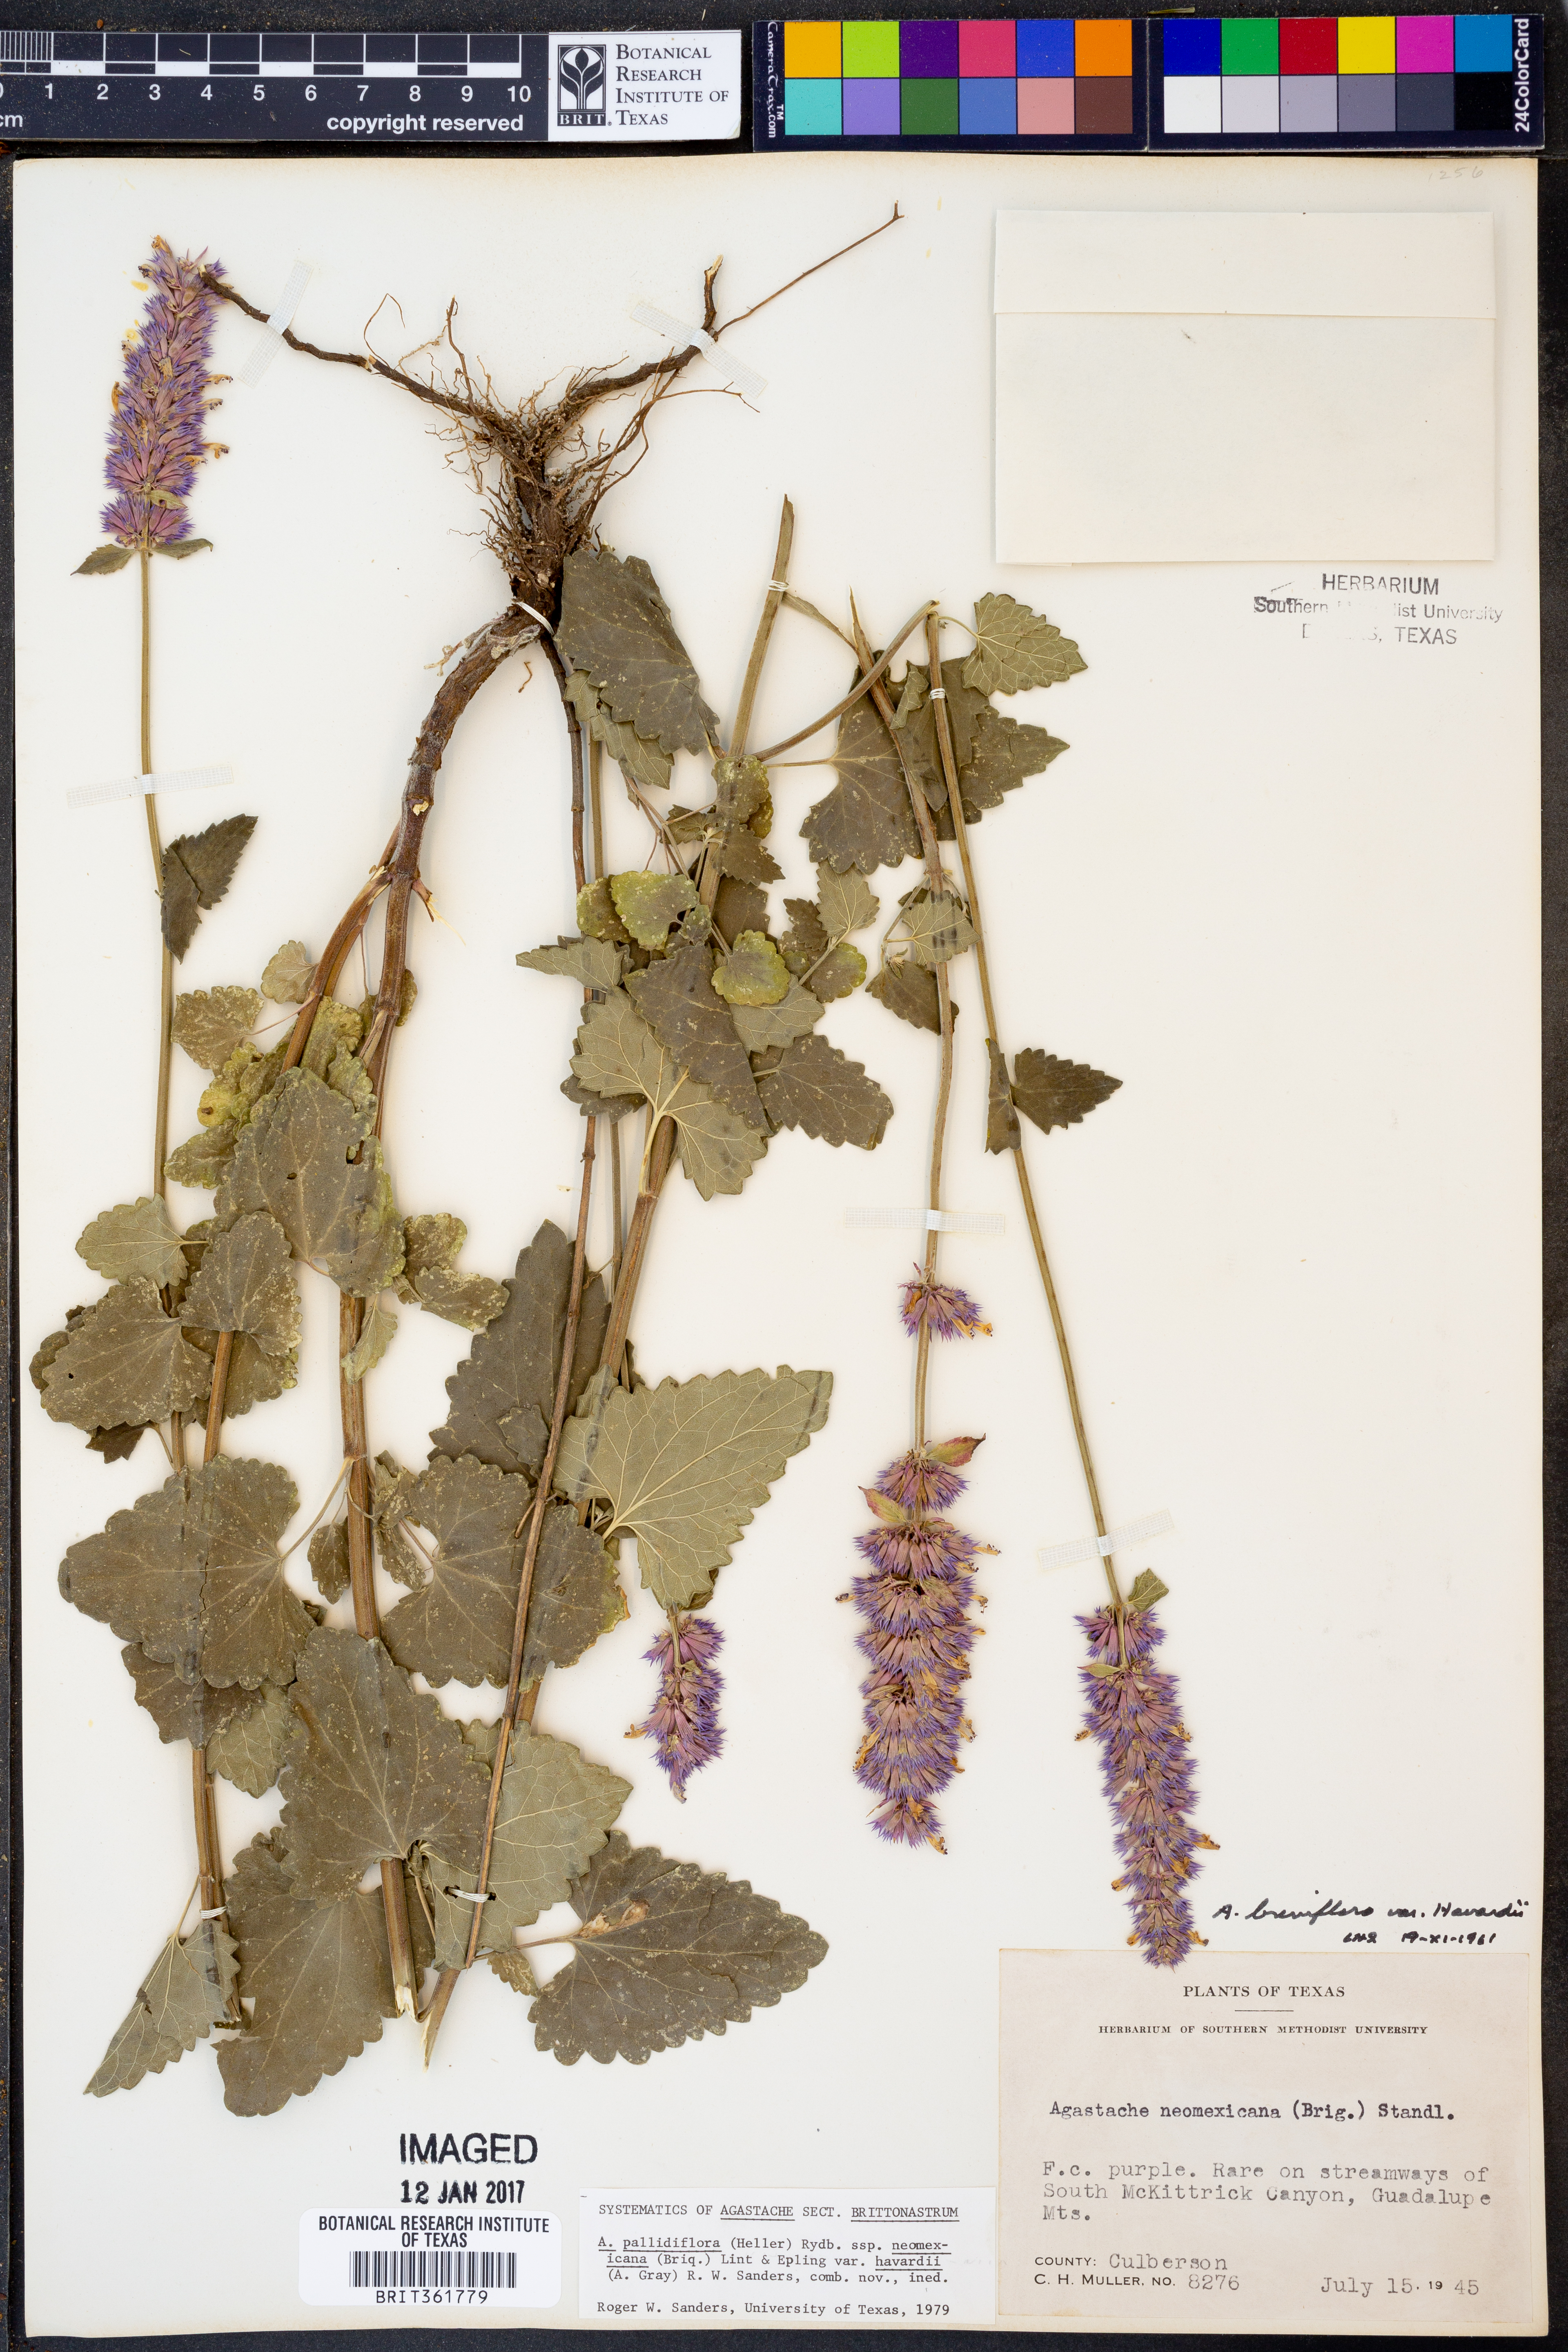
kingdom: Plantae
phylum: Tracheophyta
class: Magnoliopsida
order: Lamiales
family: Lamiaceae
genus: Agastache
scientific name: Agastache pallidiflora
